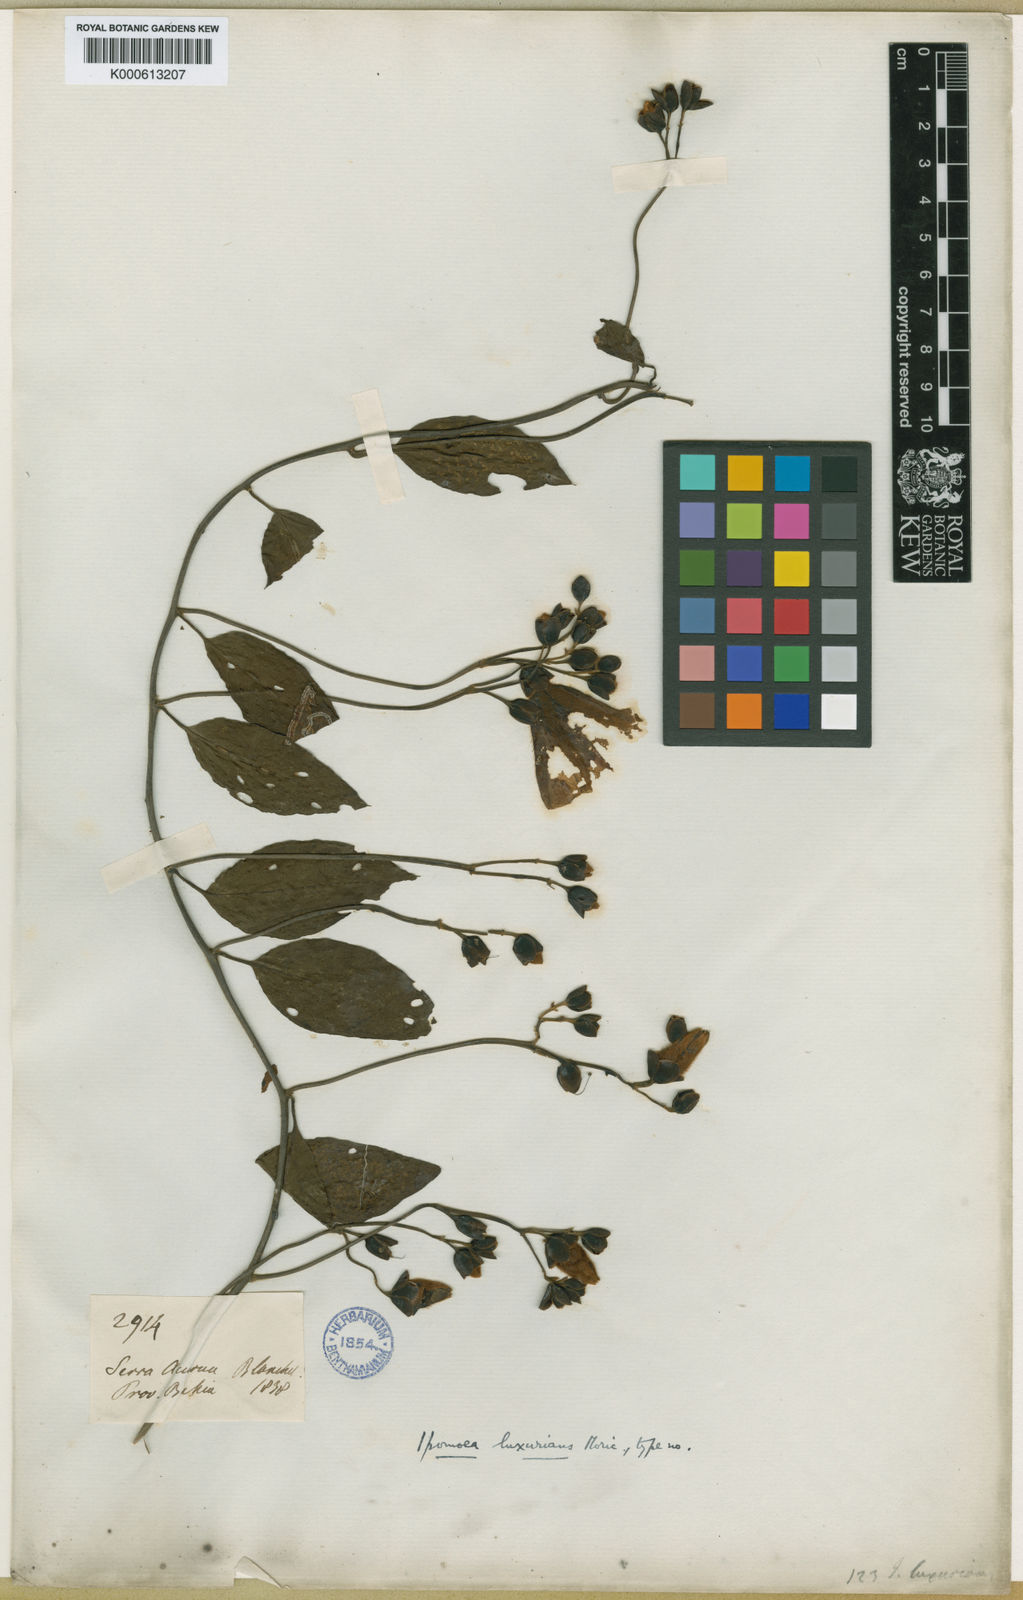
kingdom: Plantae
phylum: Tracheophyta
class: Magnoliopsida
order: Solanales
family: Convolvulaceae
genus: Aniseia
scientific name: Aniseia luxurians
